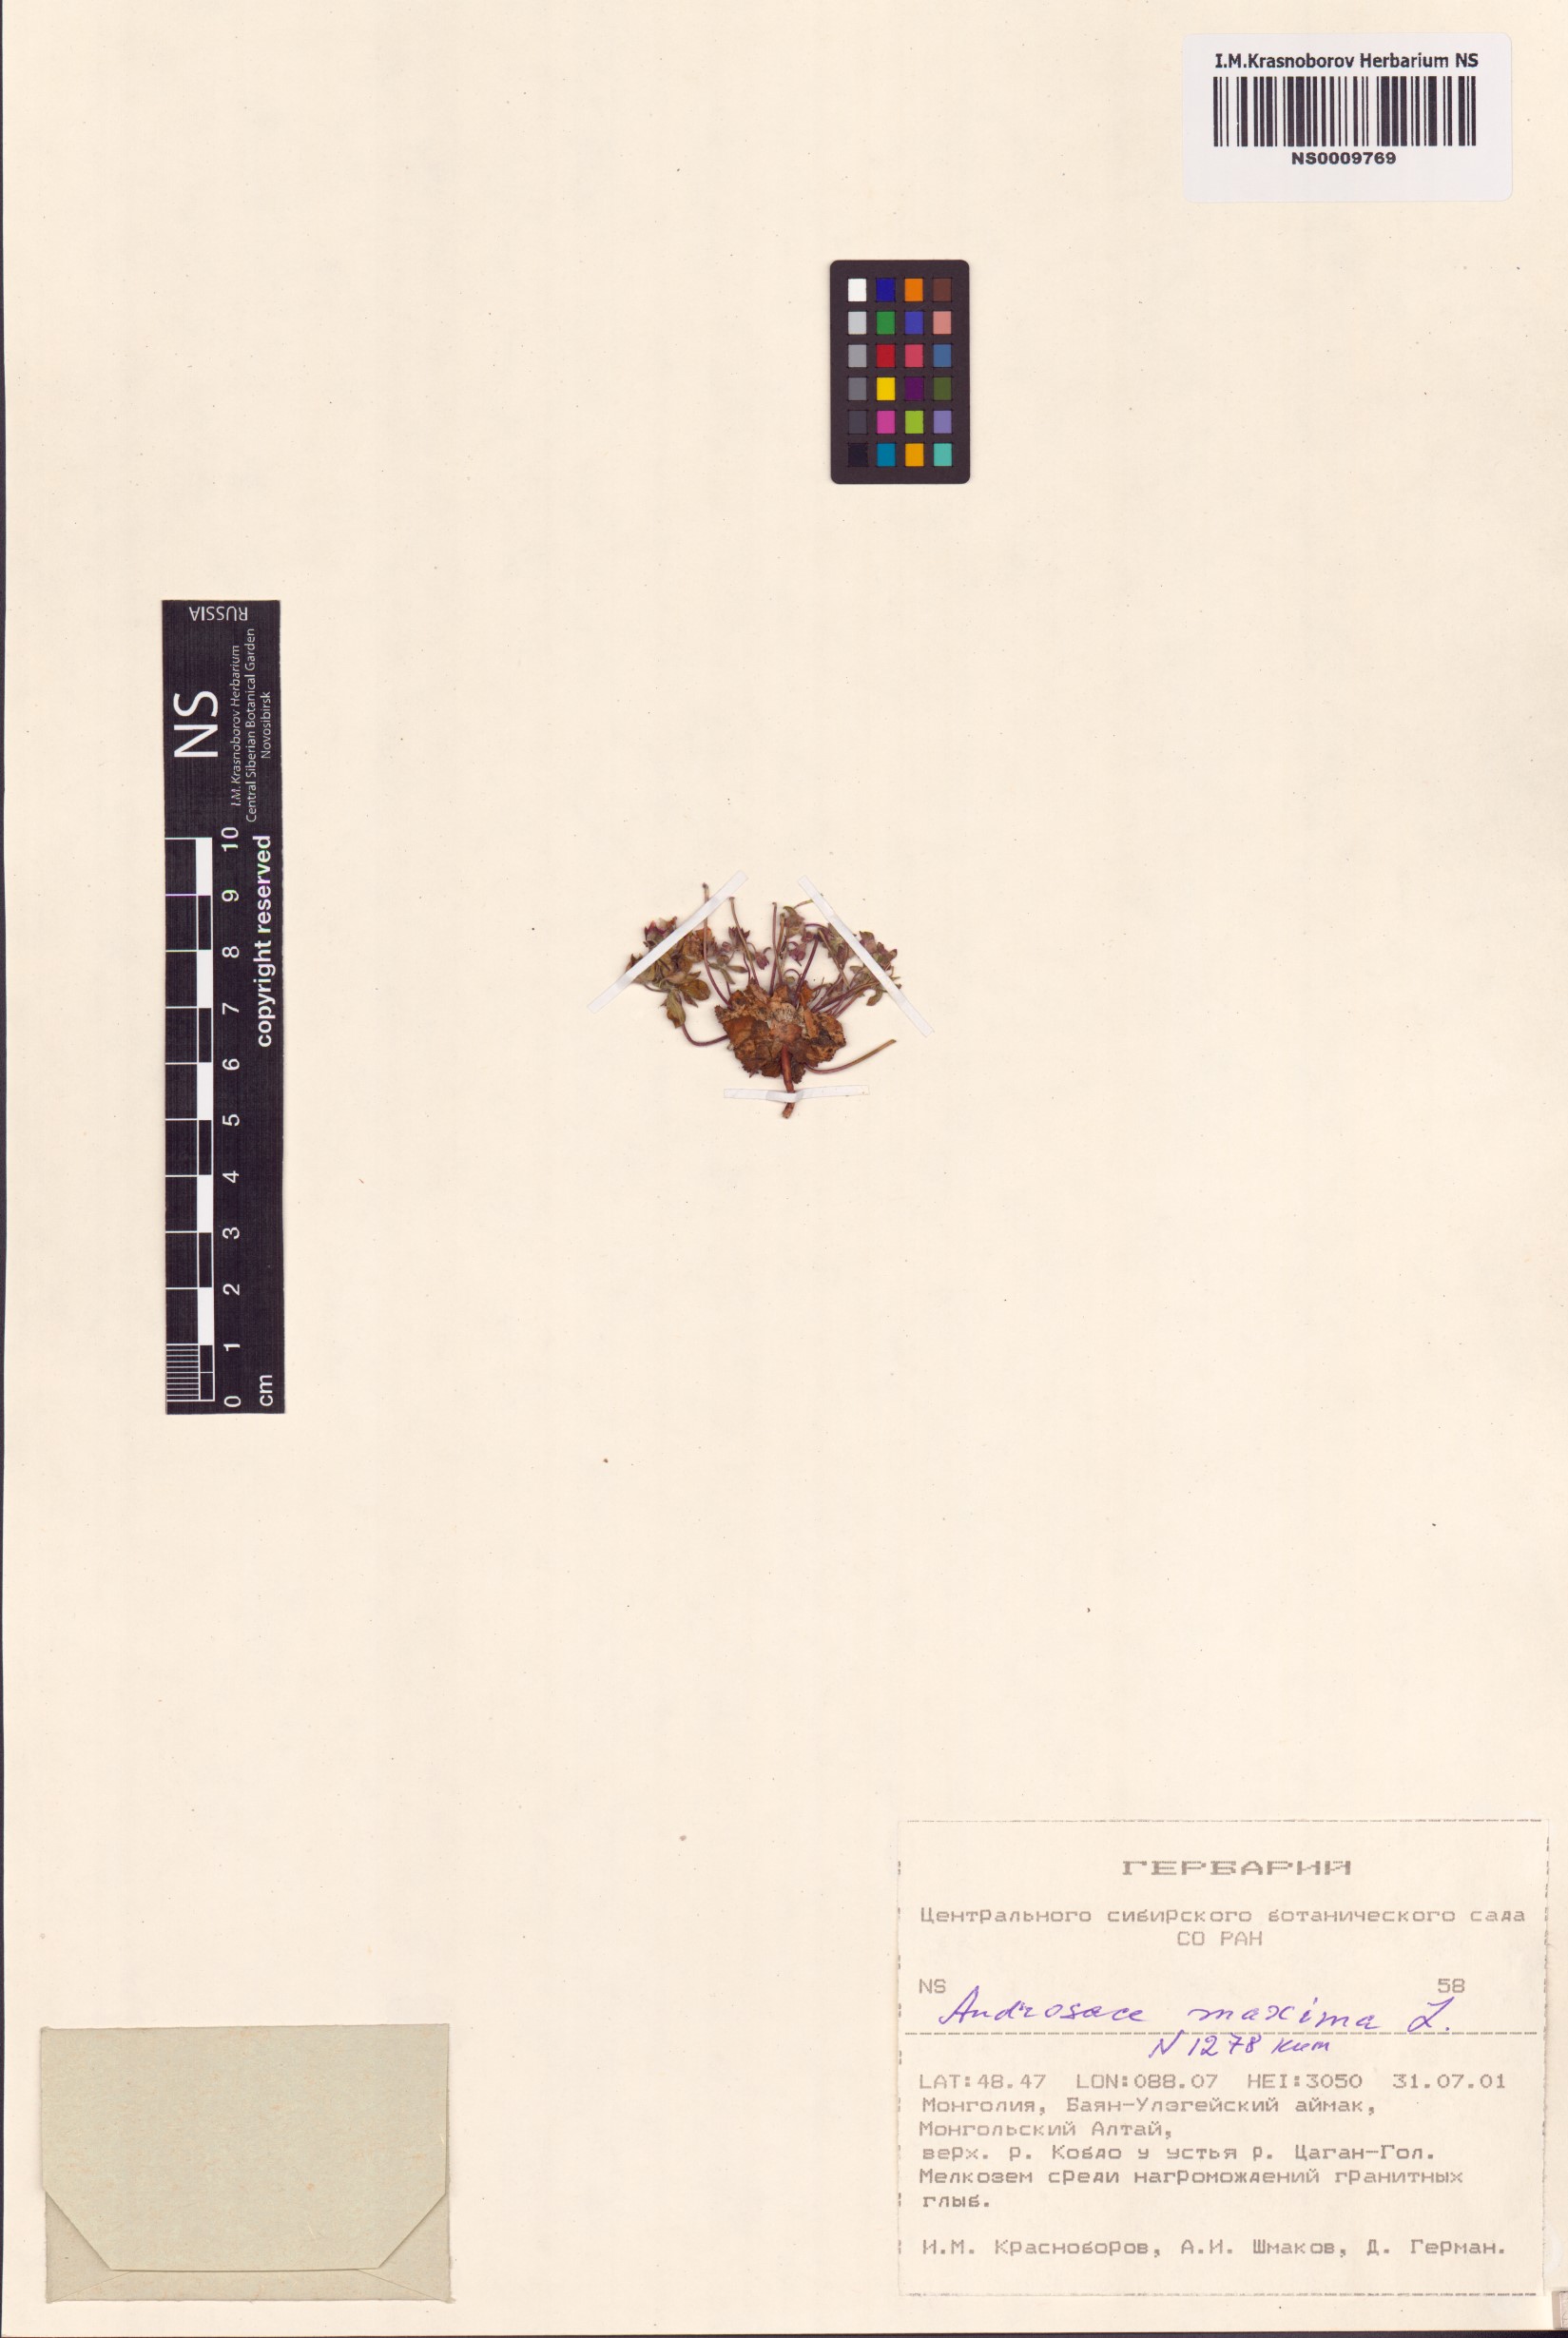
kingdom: Plantae
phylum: Tracheophyta
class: Magnoliopsida
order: Ericales
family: Primulaceae
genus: Androsace
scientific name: Androsace maxima
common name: Annual androsace
